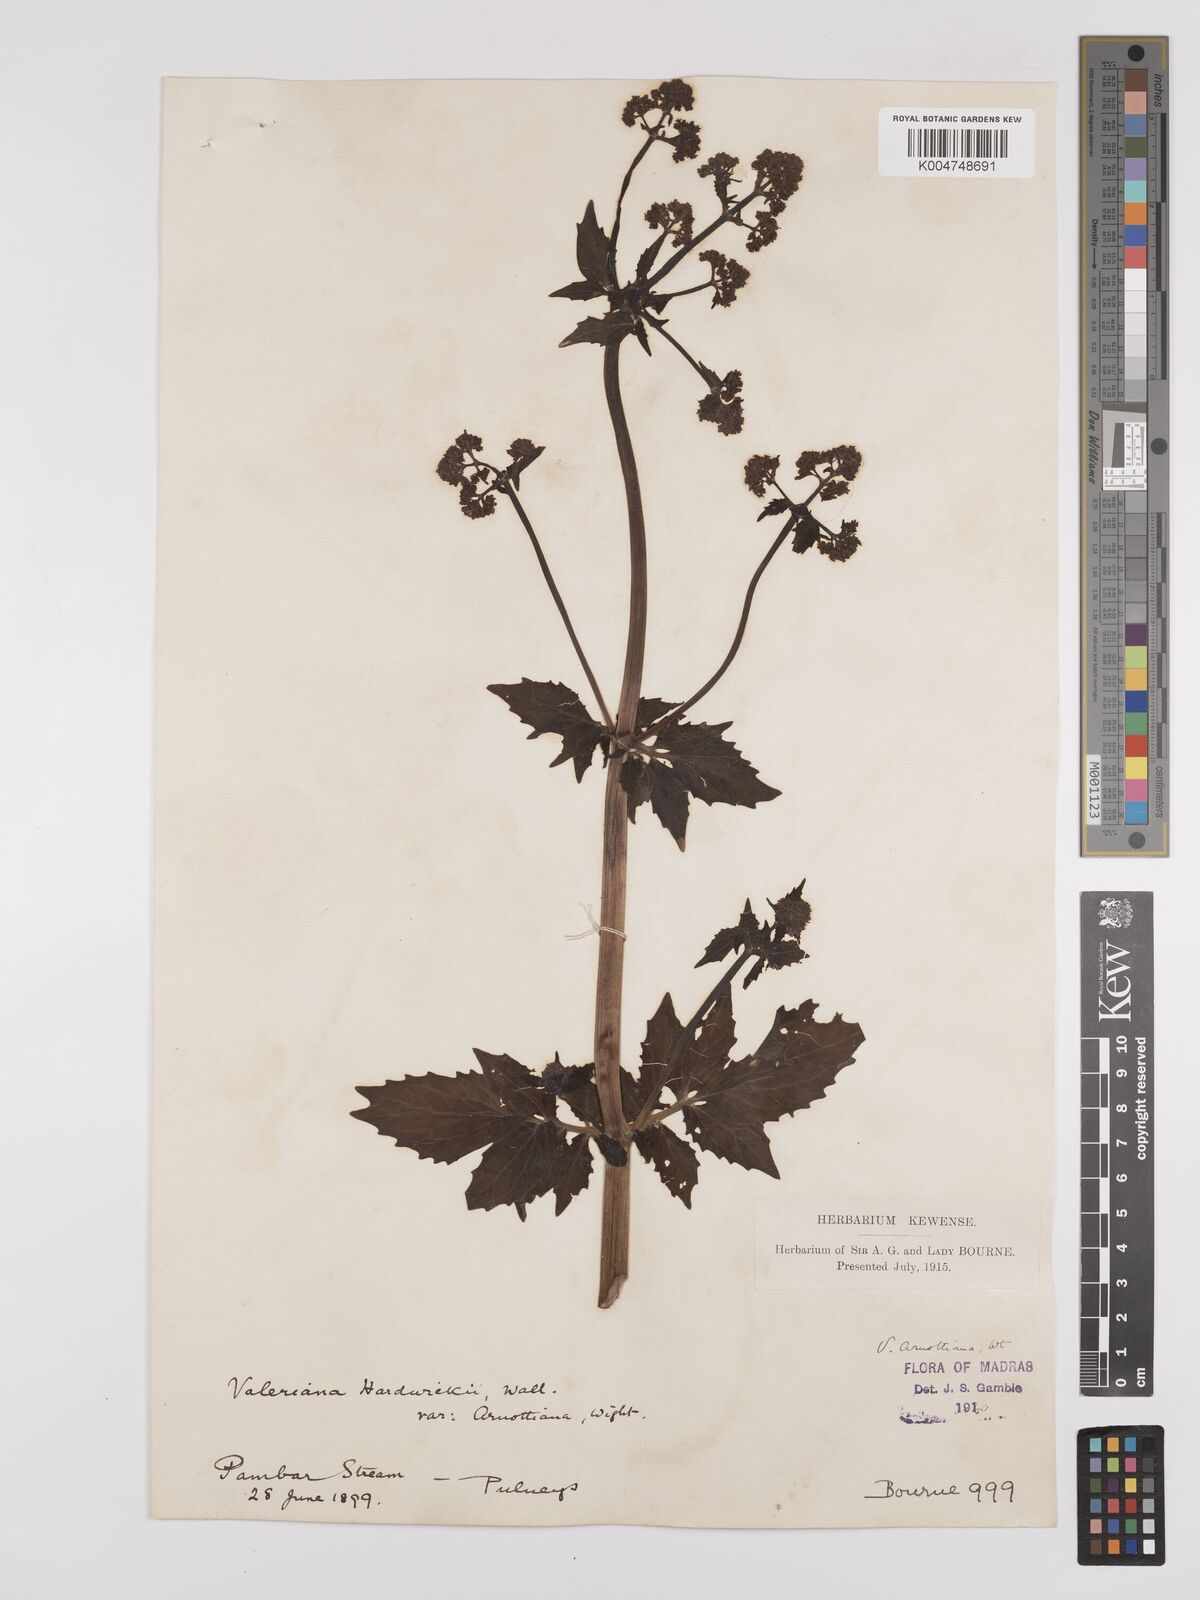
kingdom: Plantae
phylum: Tracheophyta
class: Magnoliopsida
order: Dipsacales
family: Caprifoliaceae
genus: Valeriana
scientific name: Valeriana
